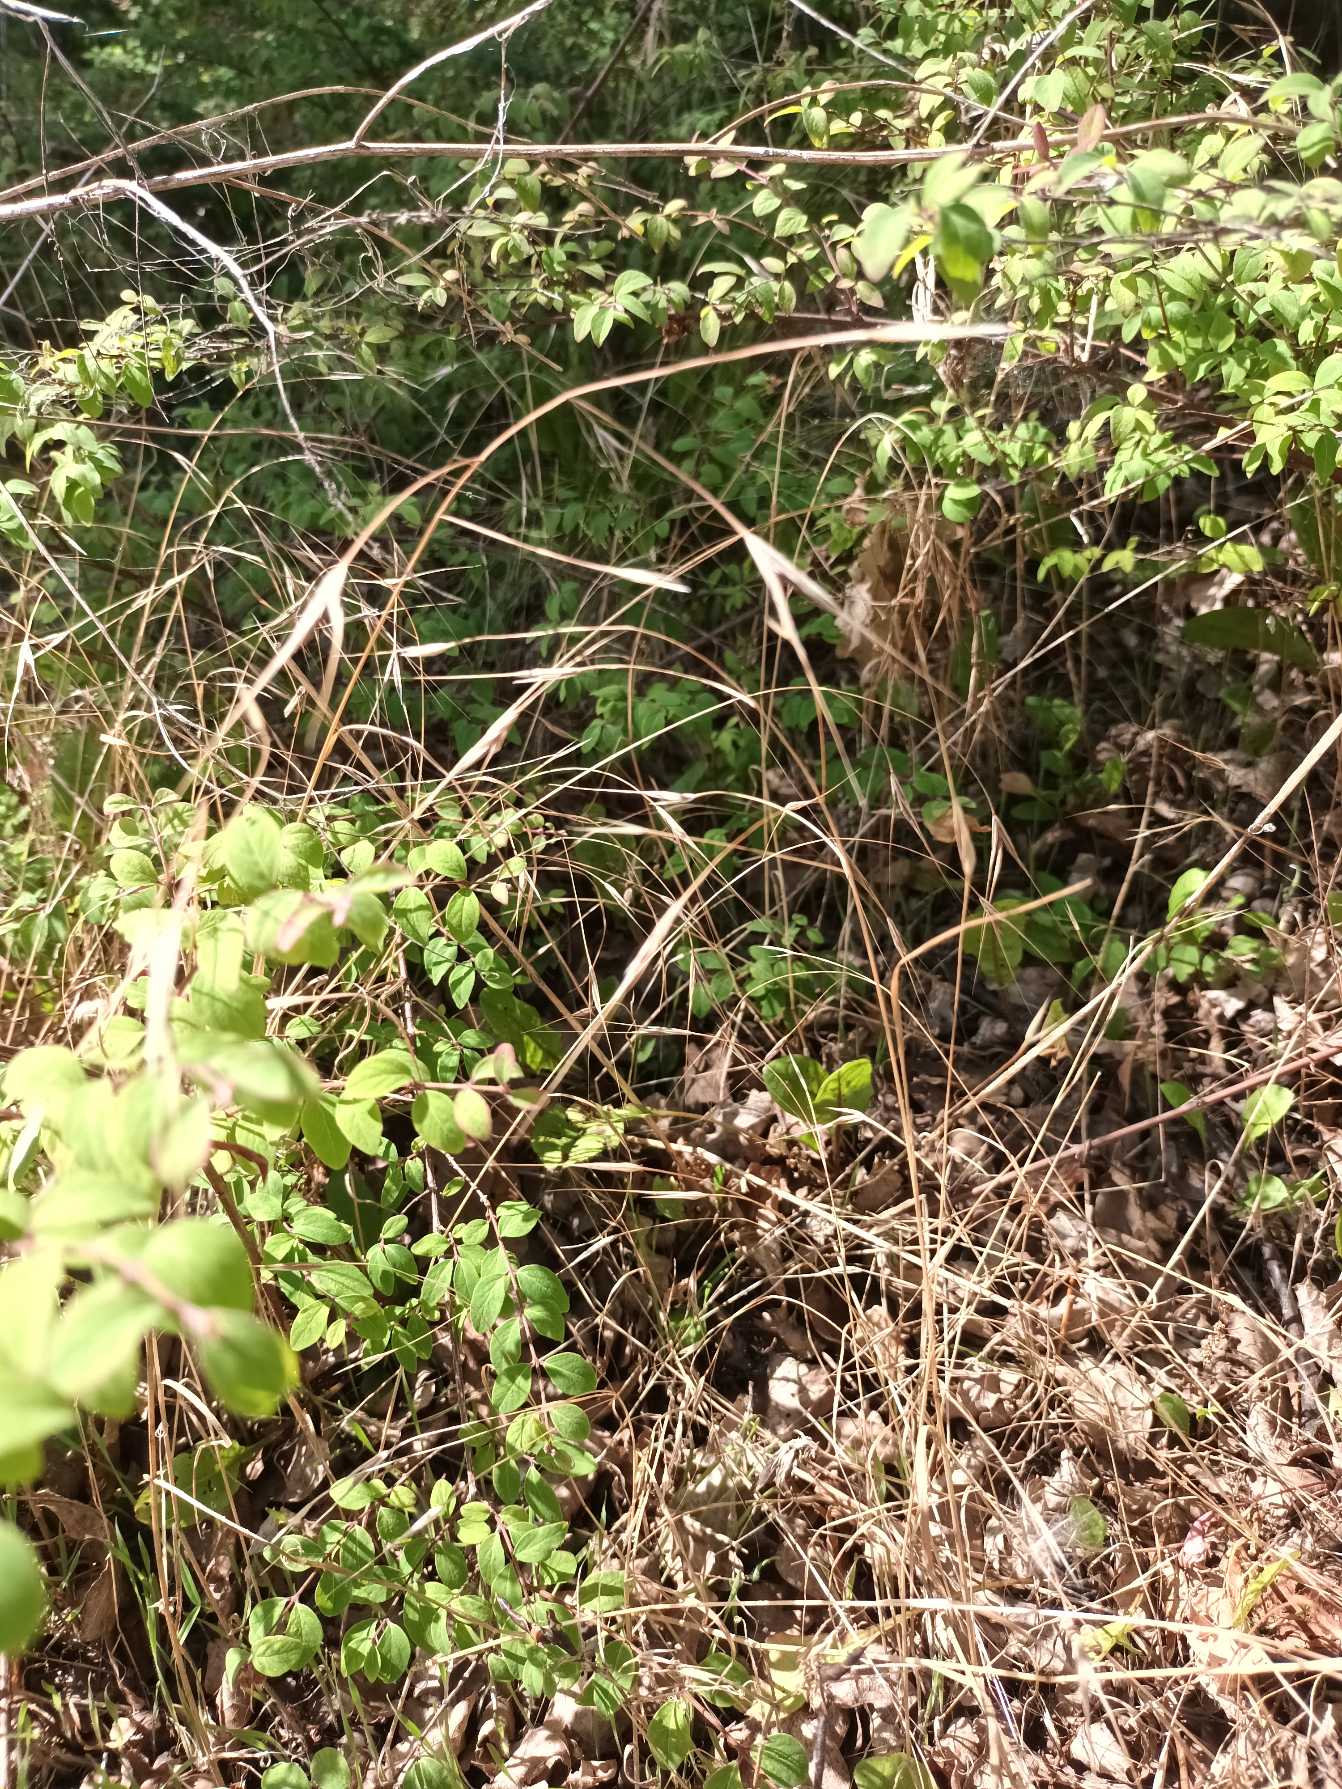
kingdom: Plantae
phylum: Tracheophyta
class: Liliopsida
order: Poales
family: Poaceae
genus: Bromus
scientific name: Bromus sterilis
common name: Gold hejre
